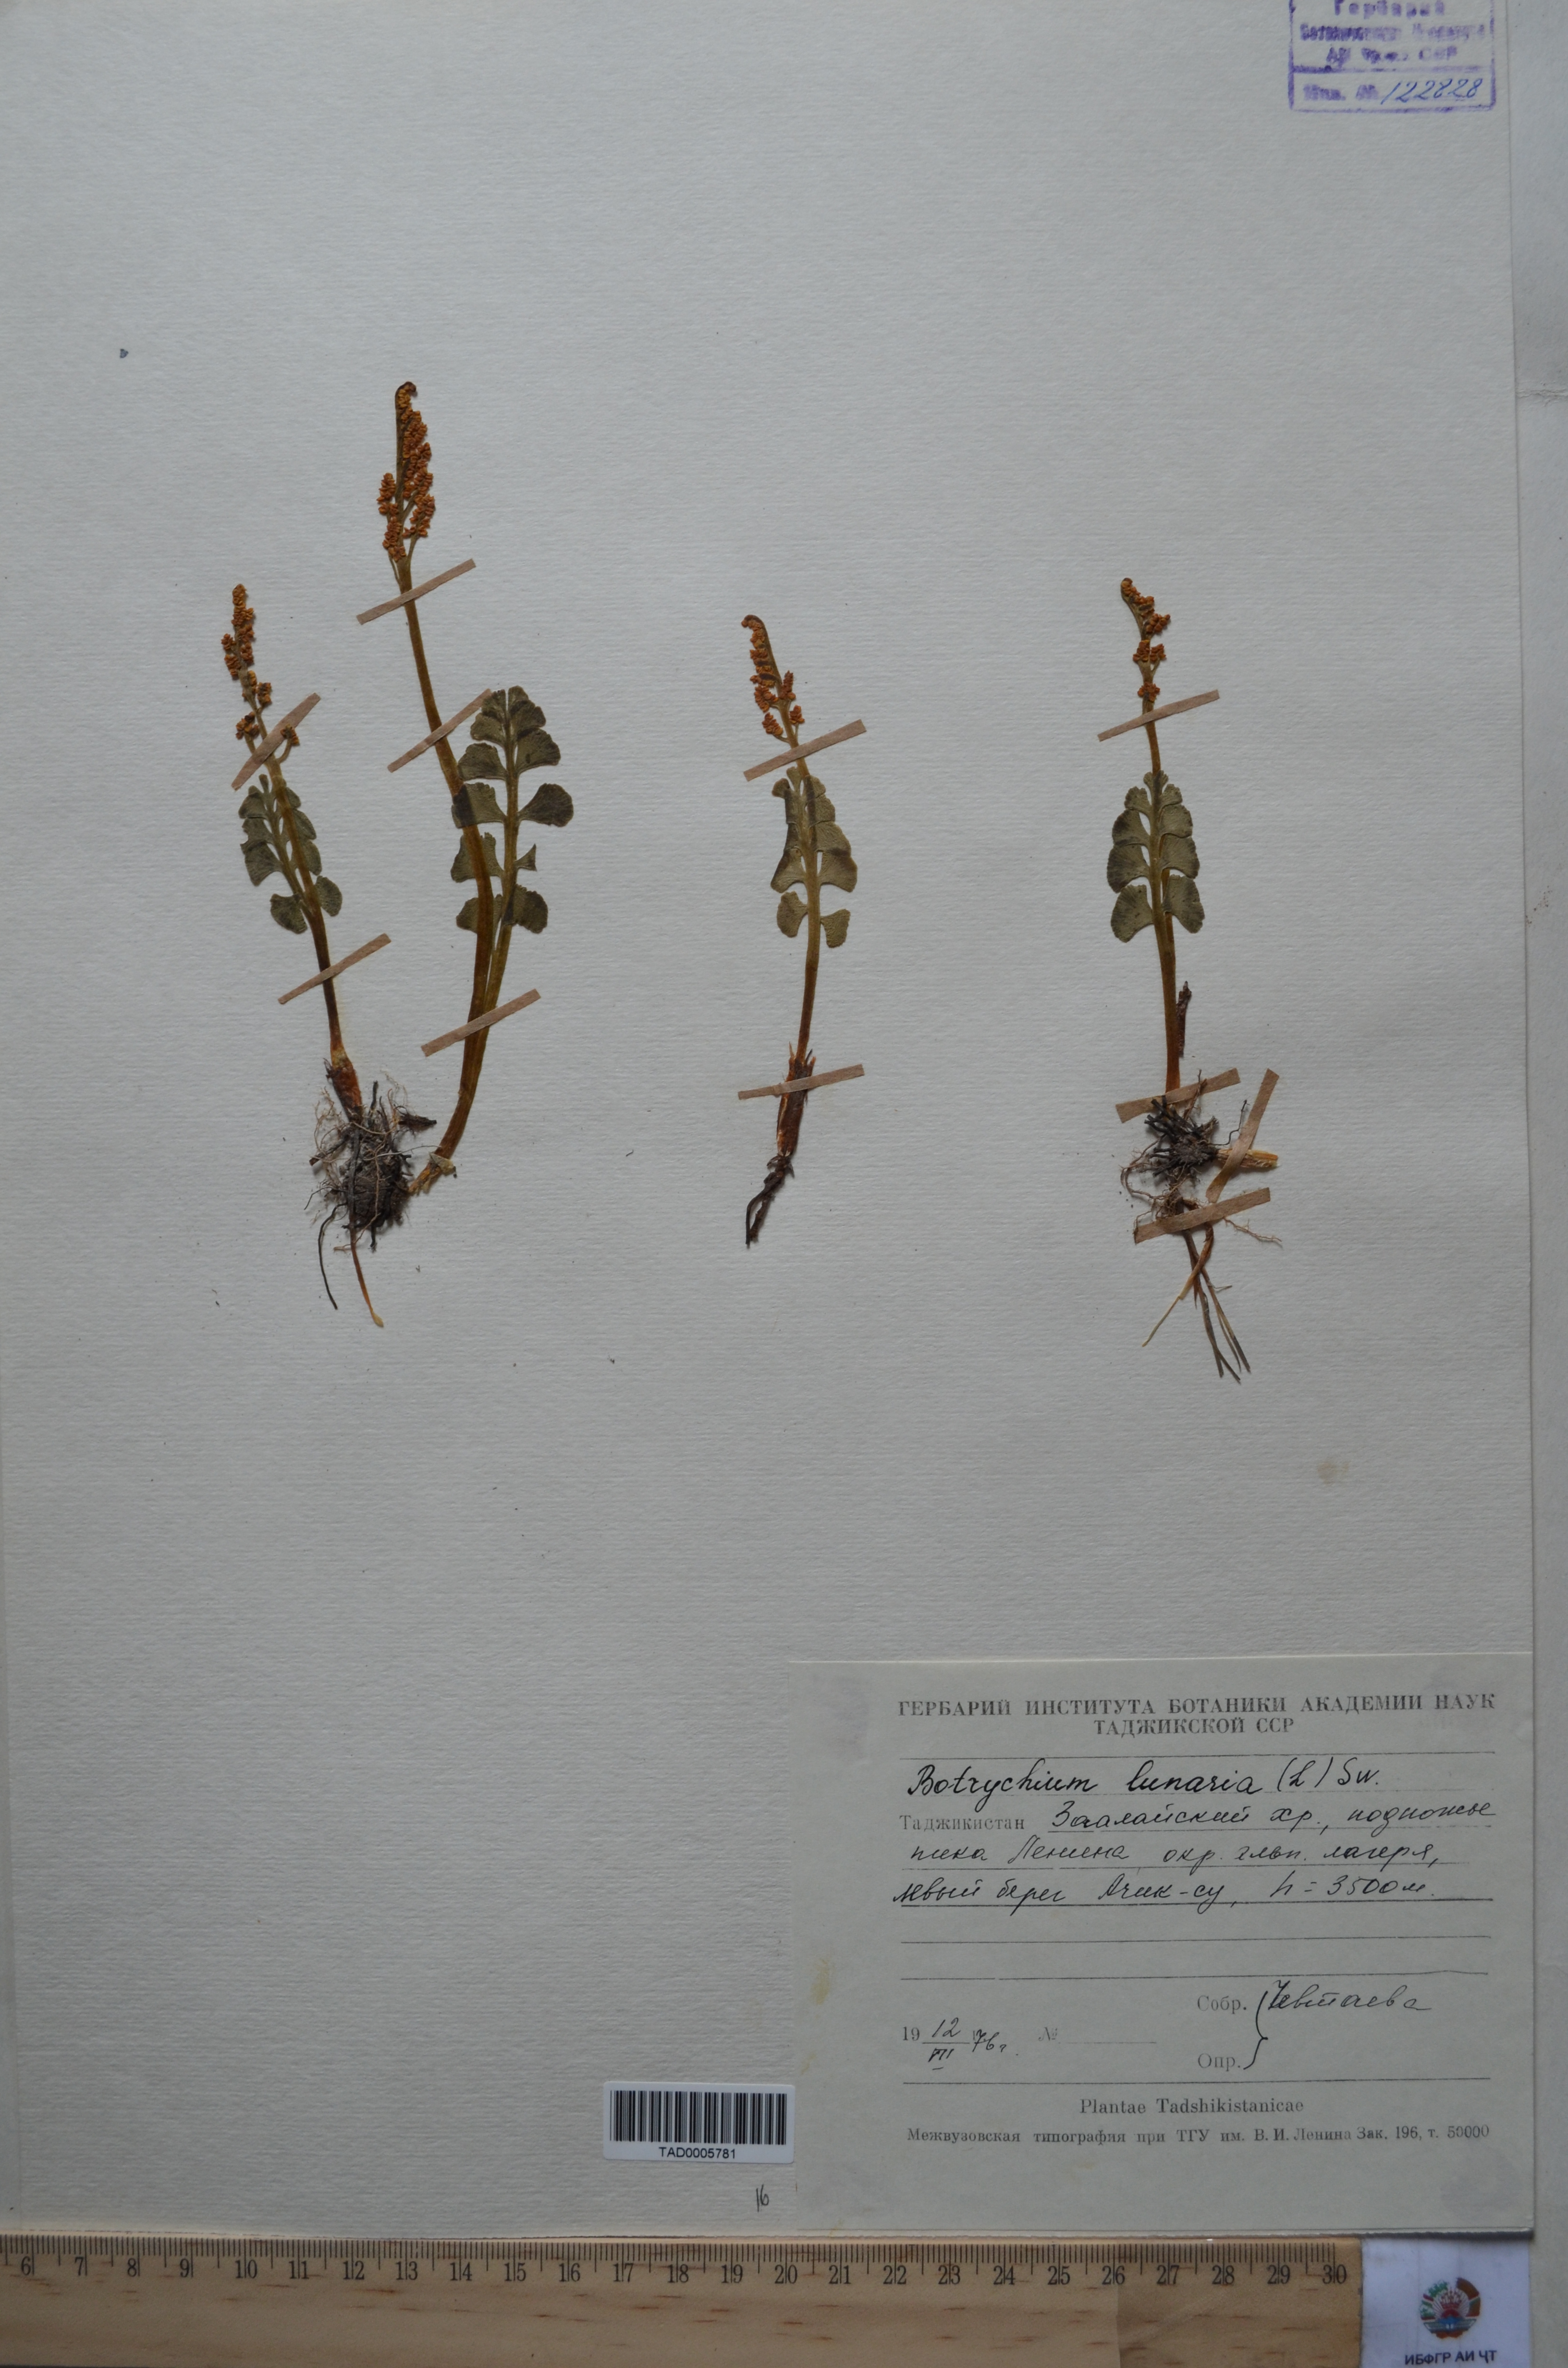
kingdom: Plantae
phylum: Tracheophyta
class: Polypodiopsida
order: Ophioglossales
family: Ophioglossaceae
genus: Botrychium
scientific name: Botrychium lunaria
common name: Moonwort
